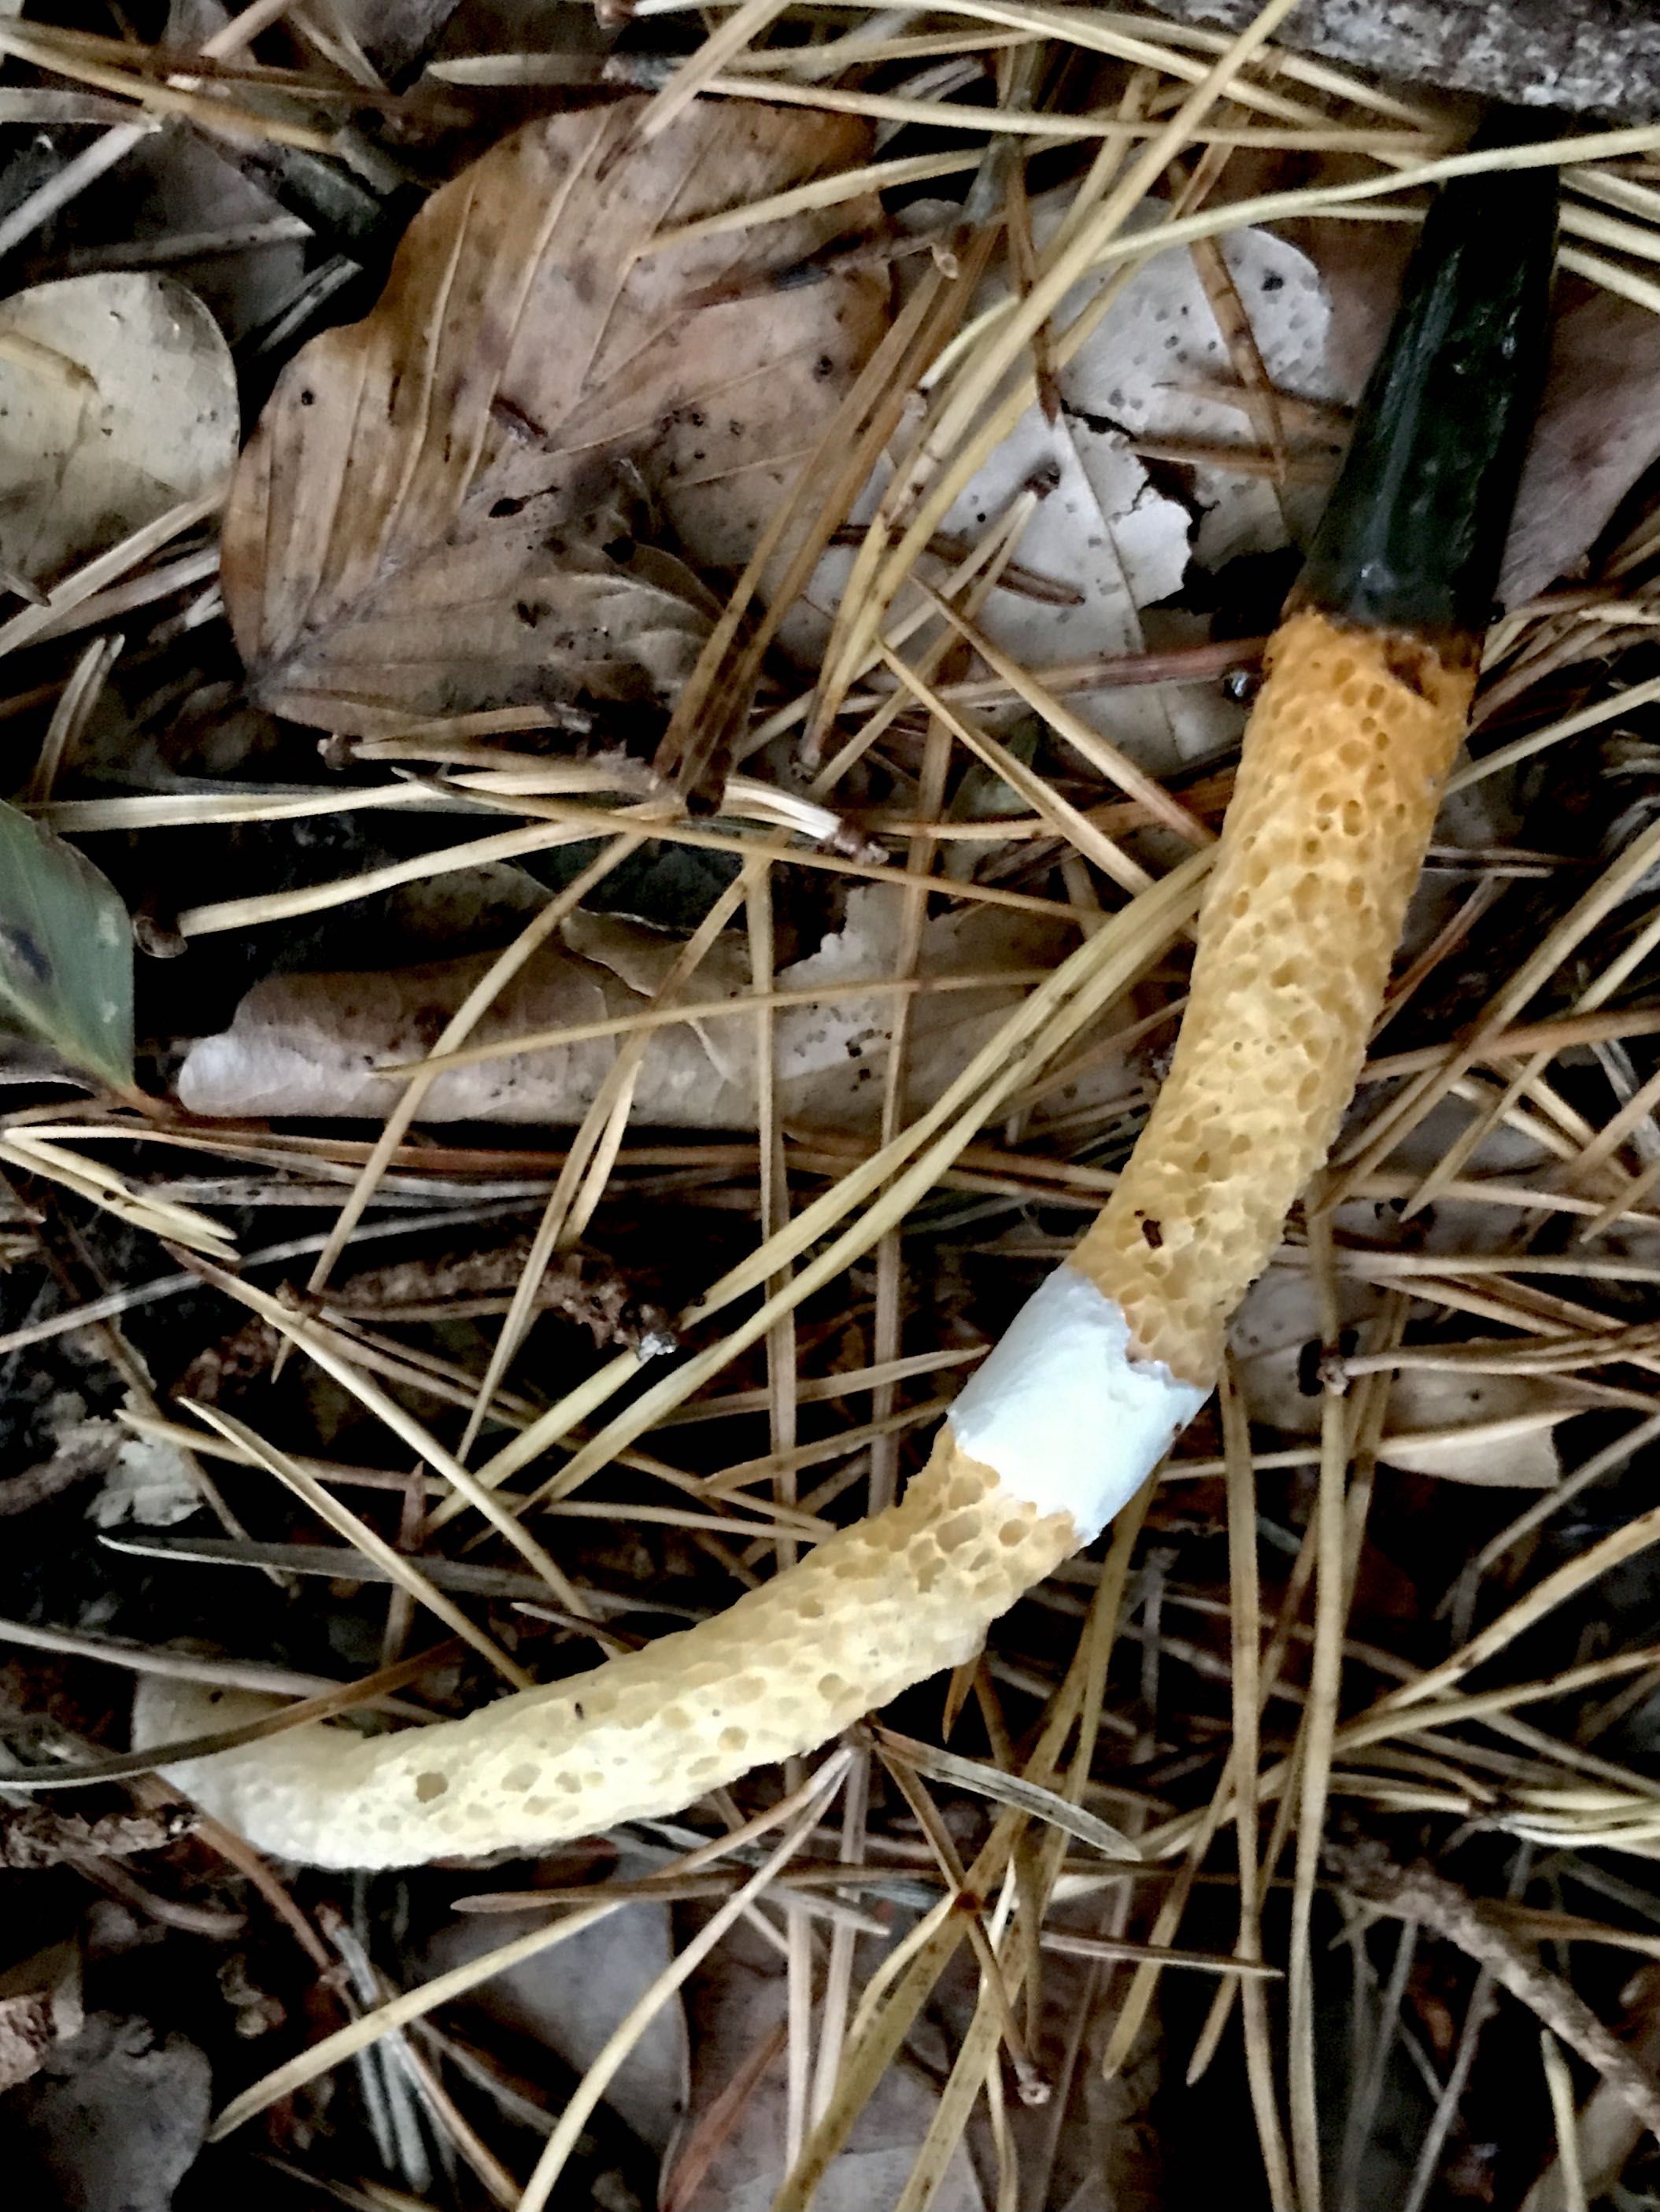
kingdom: Fungi
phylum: Basidiomycota
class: Agaricomycetes
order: Phallales
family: Phallaceae
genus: Mutinus
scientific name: Mutinus caninus
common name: hunde-stinksvamp
